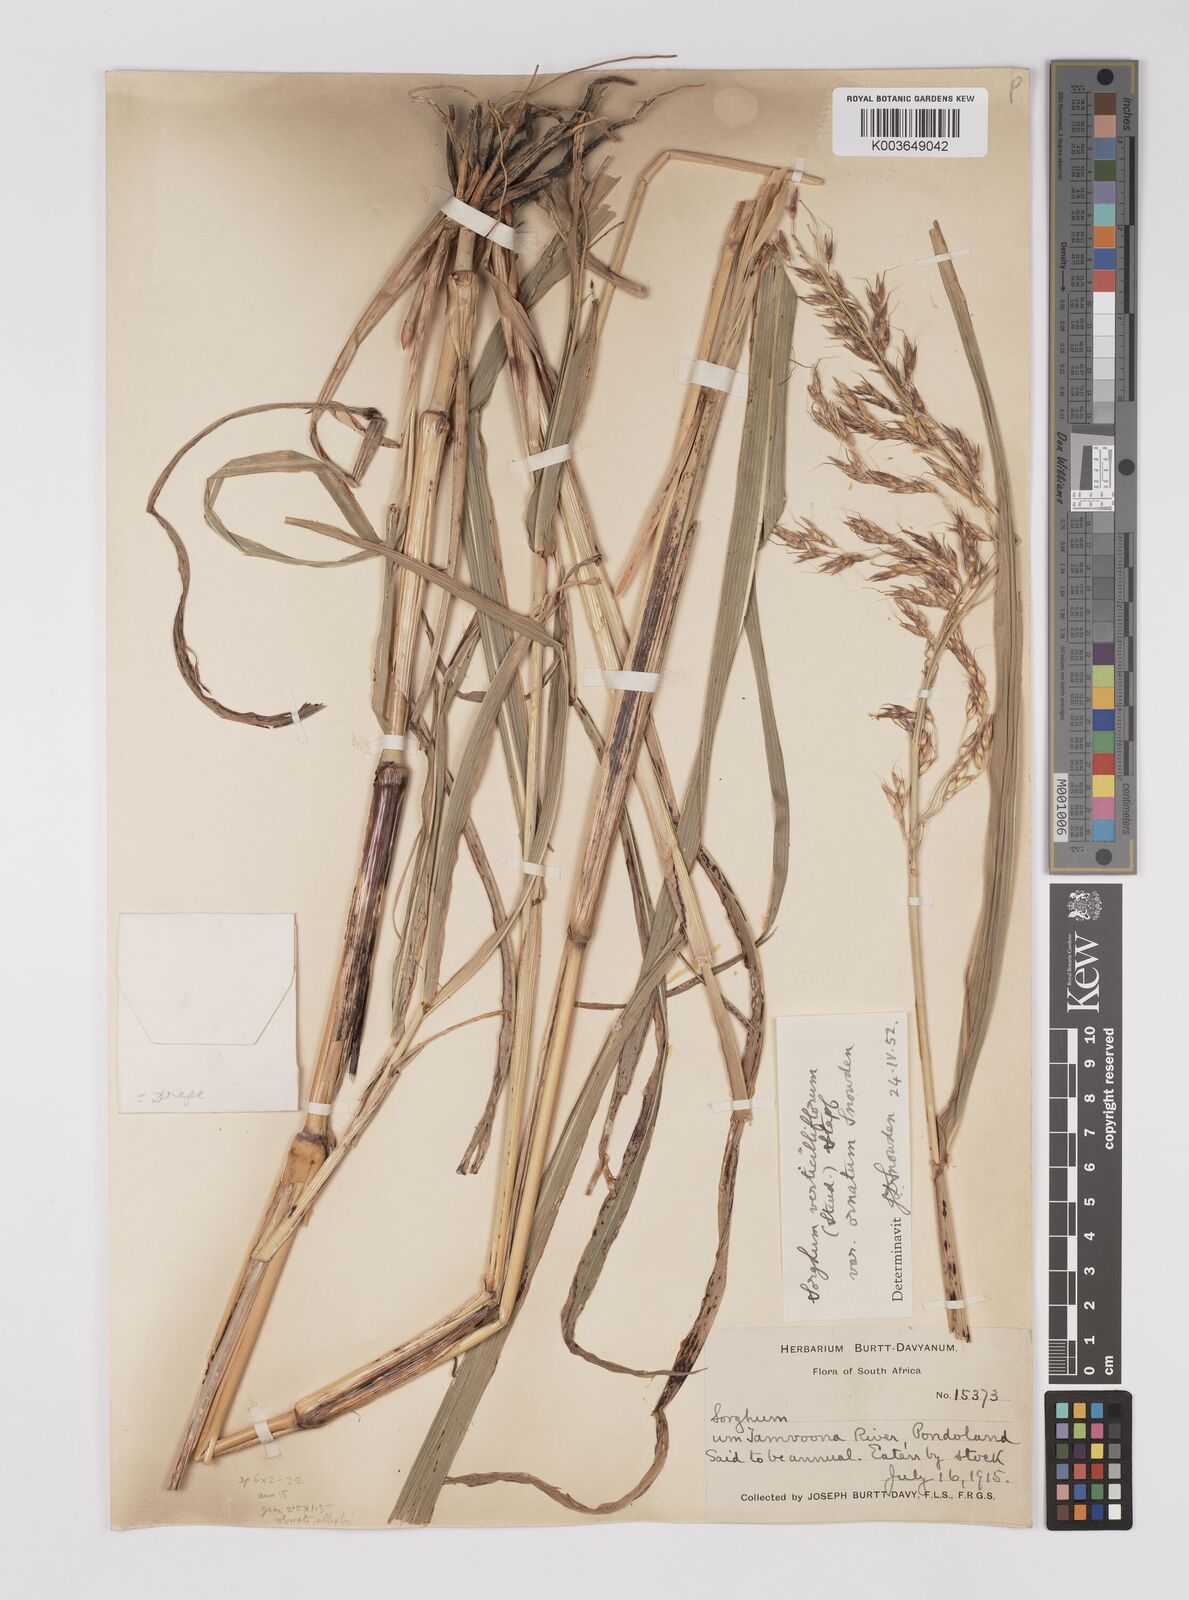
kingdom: Plantae
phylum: Tracheophyta
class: Liliopsida
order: Poales
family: Poaceae
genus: Sorghum
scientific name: Sorghum arundinaceum
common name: Sorghum
